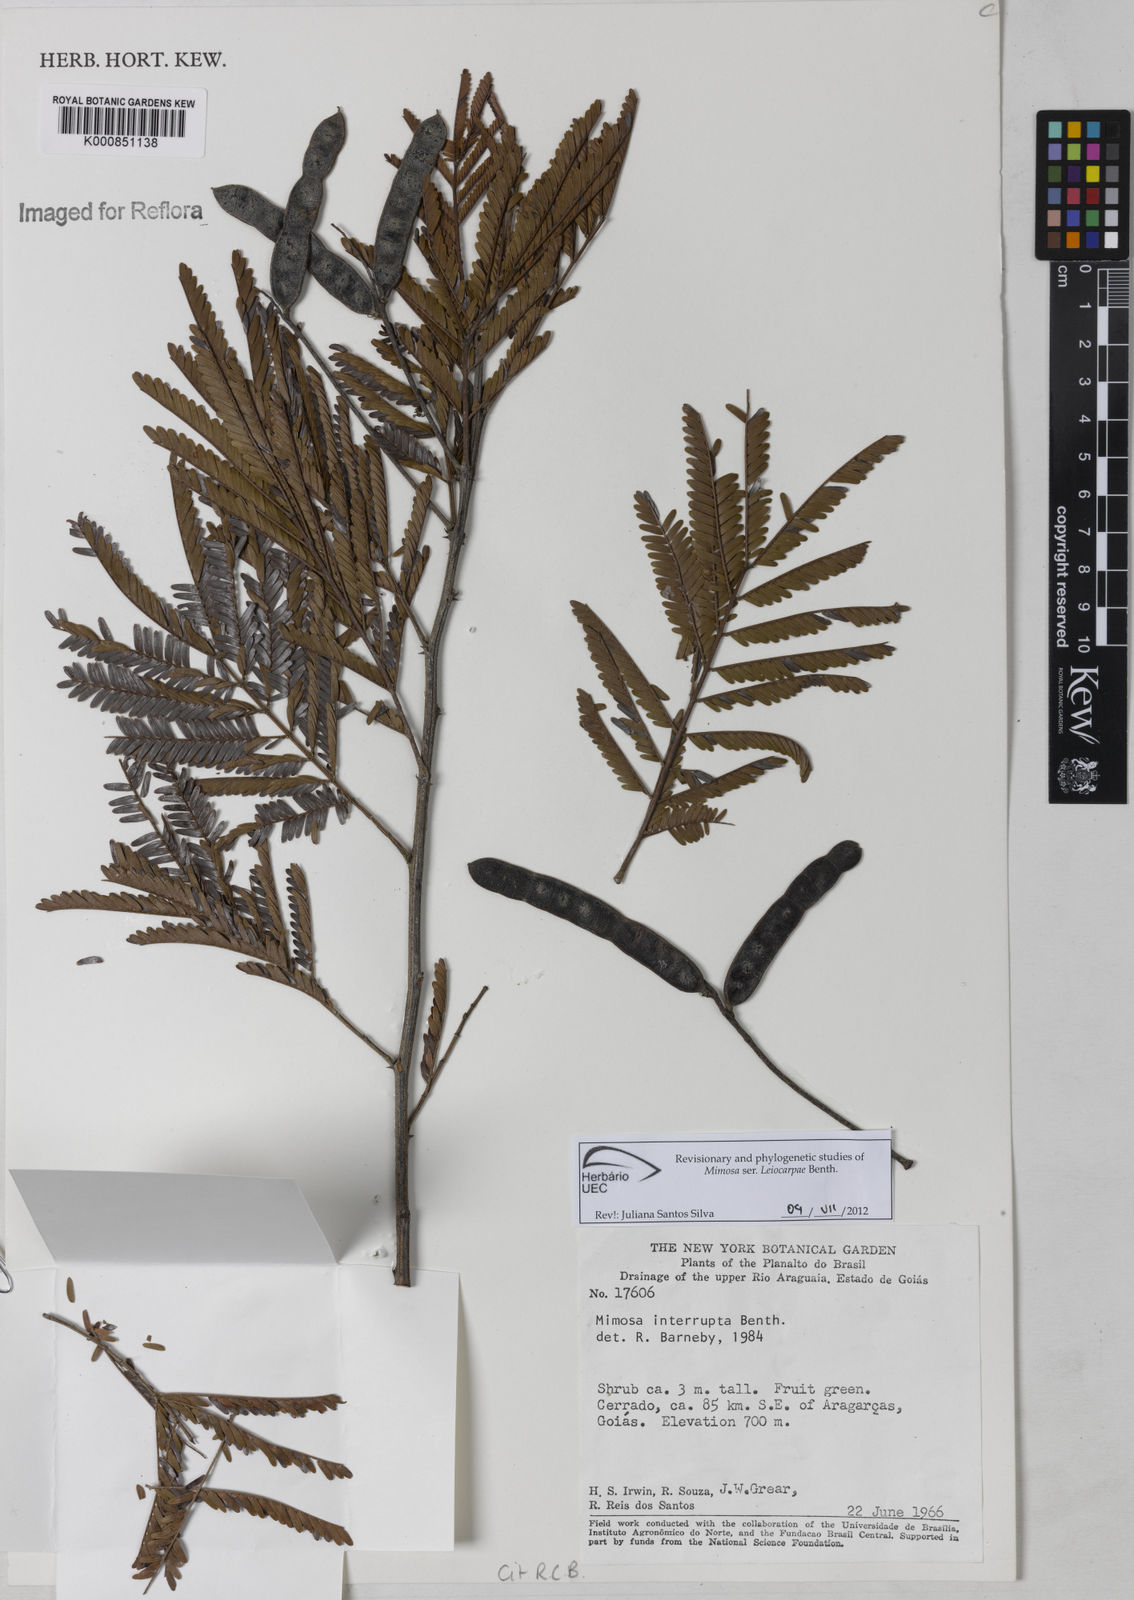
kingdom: Plantae
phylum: Tracheophyta
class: Magnoliopsida
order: Fabales
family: Fabaceae
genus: Mimosa
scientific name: Mimosa interrupta
